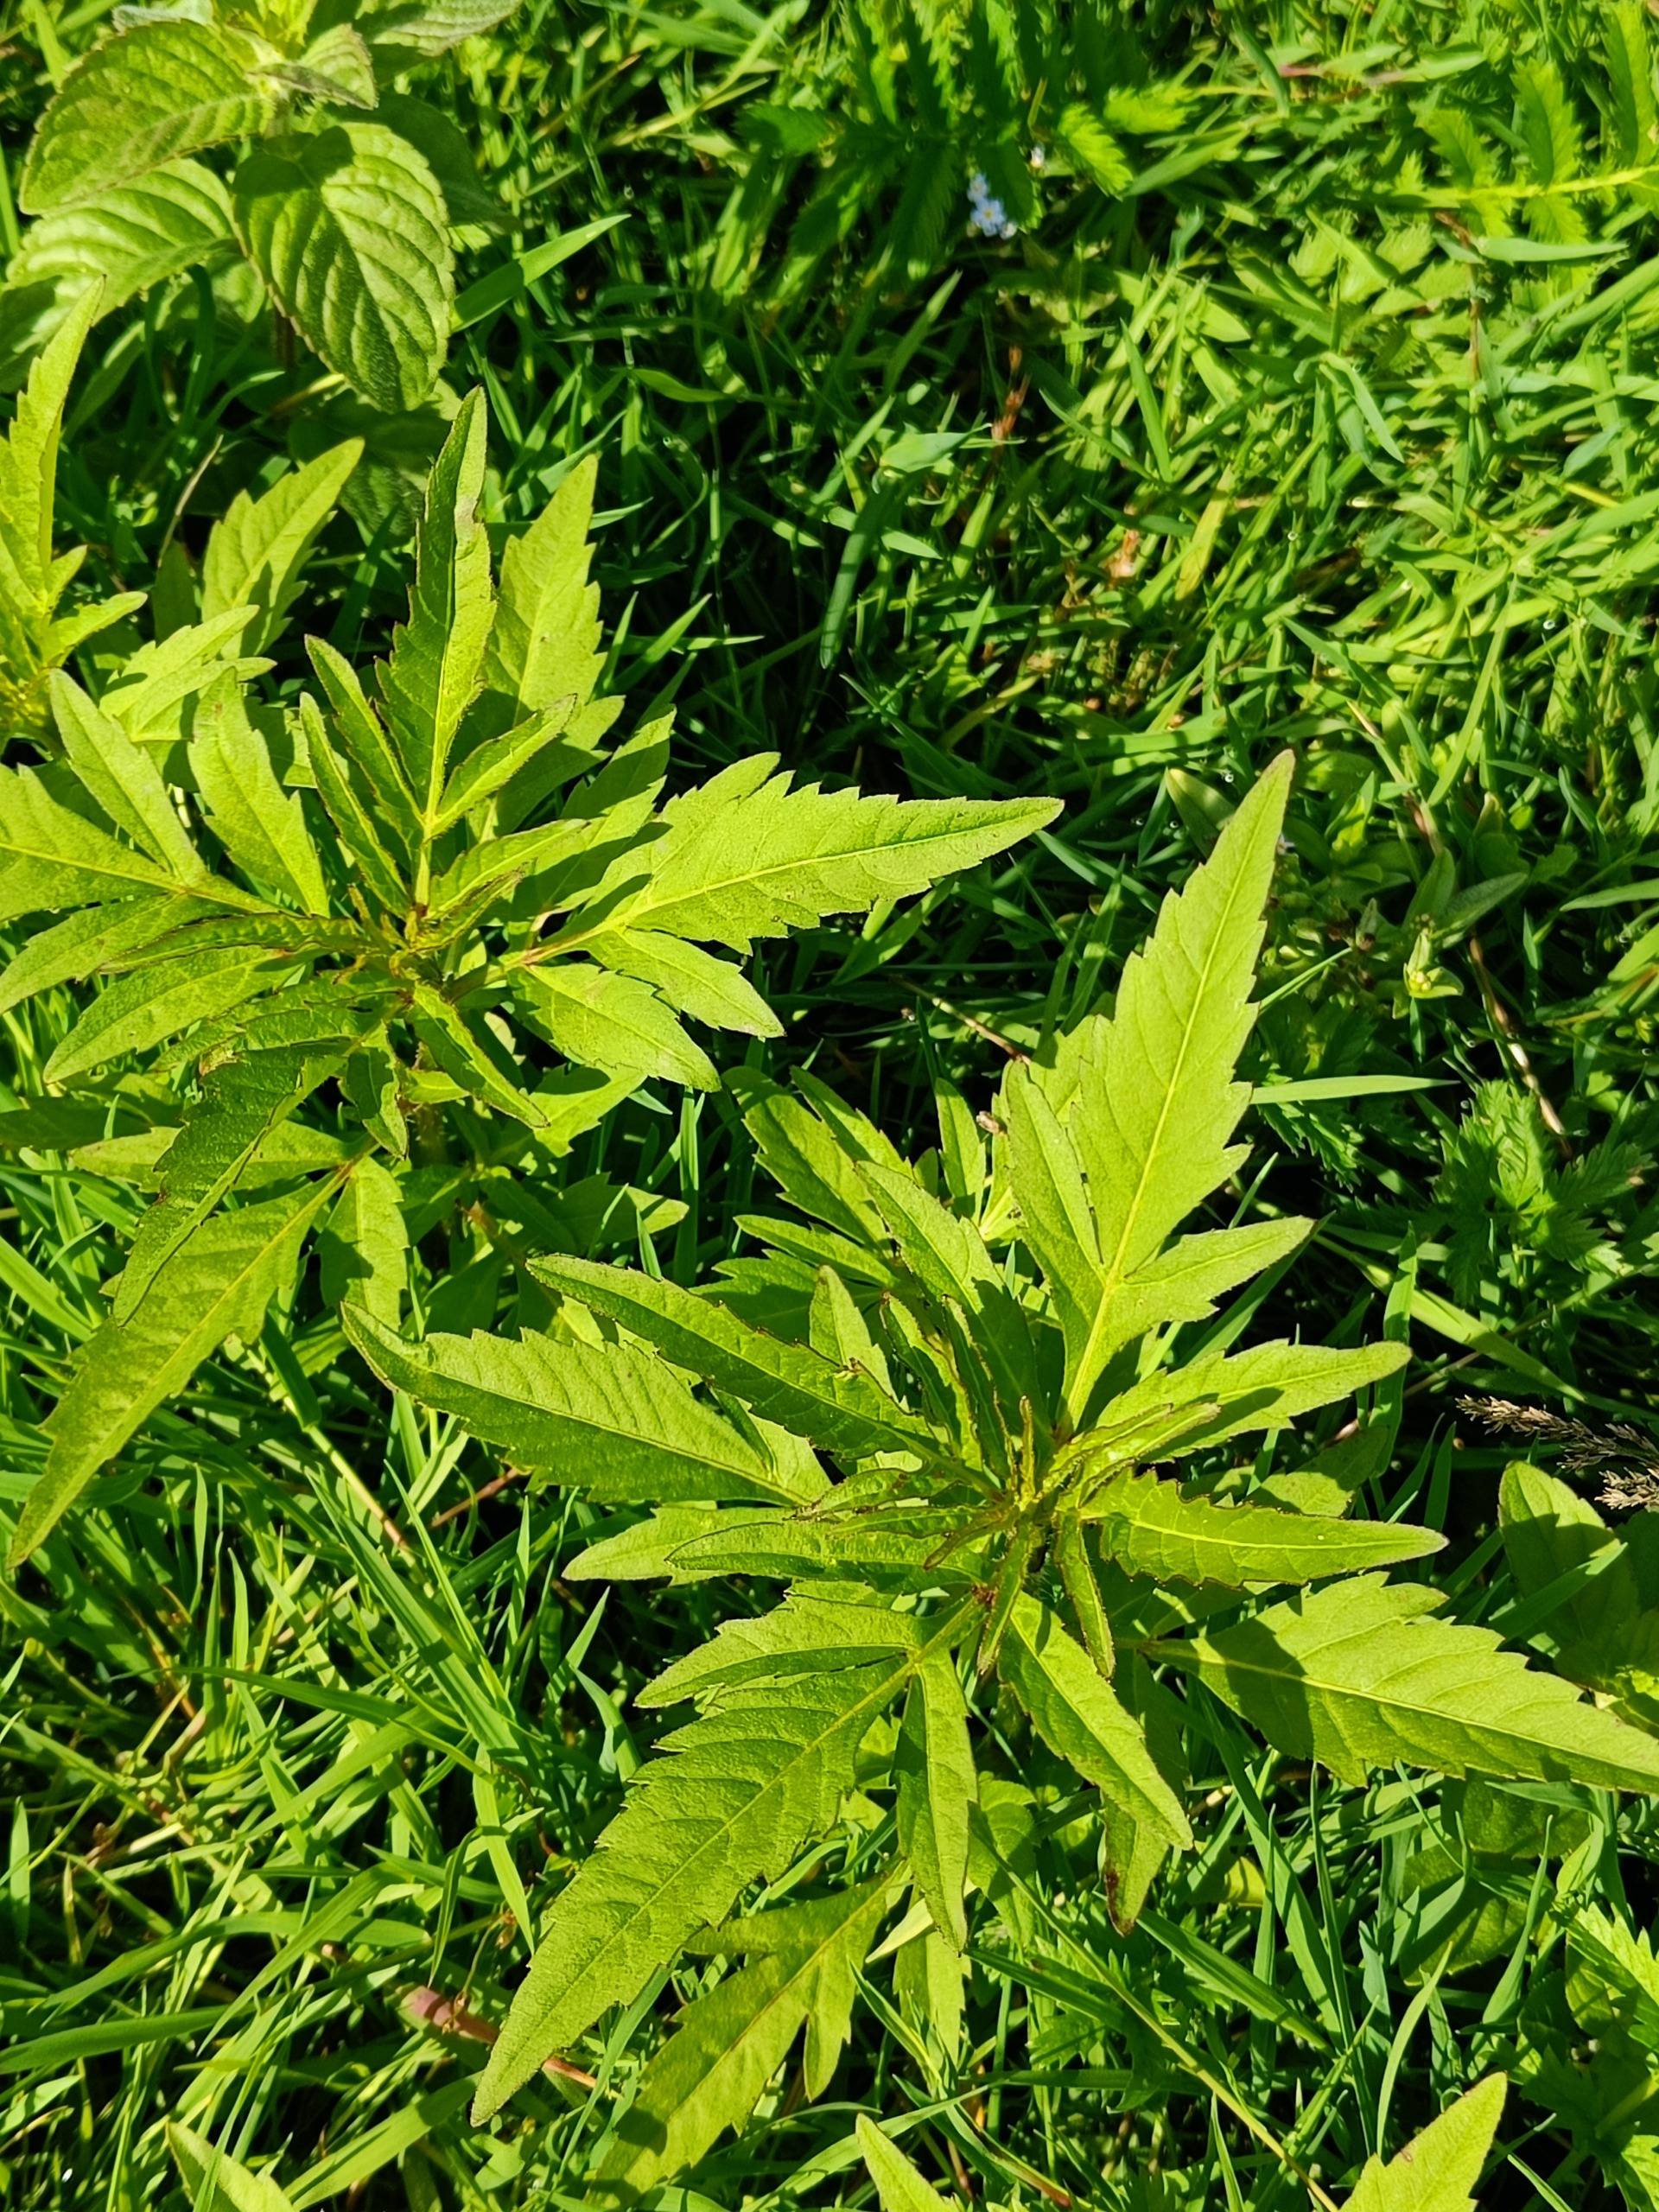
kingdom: Plantae
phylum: Tracheophyta
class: Magnoliopsida
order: Asterales
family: Asteraceae
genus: Bidens
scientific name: Bidens tripartita
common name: Fliget brøndsel
